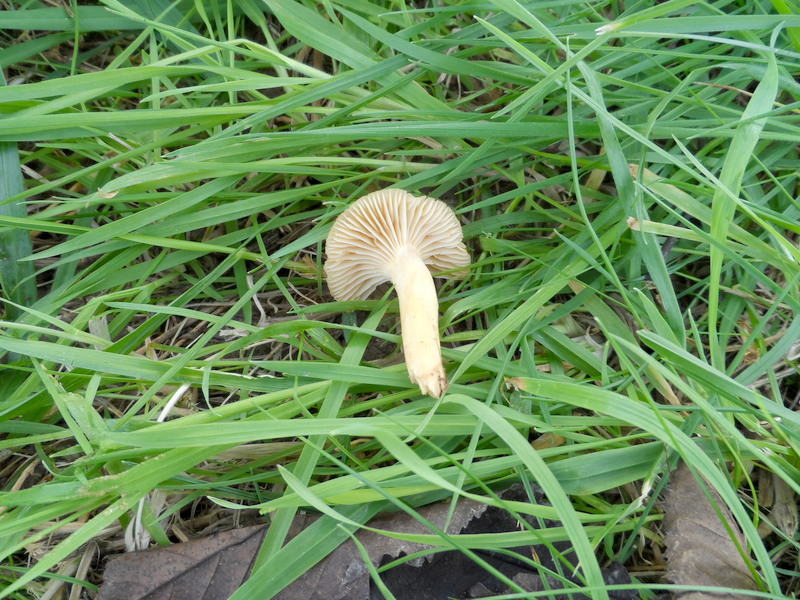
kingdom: Fungi
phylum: Basidiomycota
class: Agaricomycetes
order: Agaricales
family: Hygrophoraceae
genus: Cuphophyllus
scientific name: Cuphophyllus pratensis
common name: Meadow waxcap
